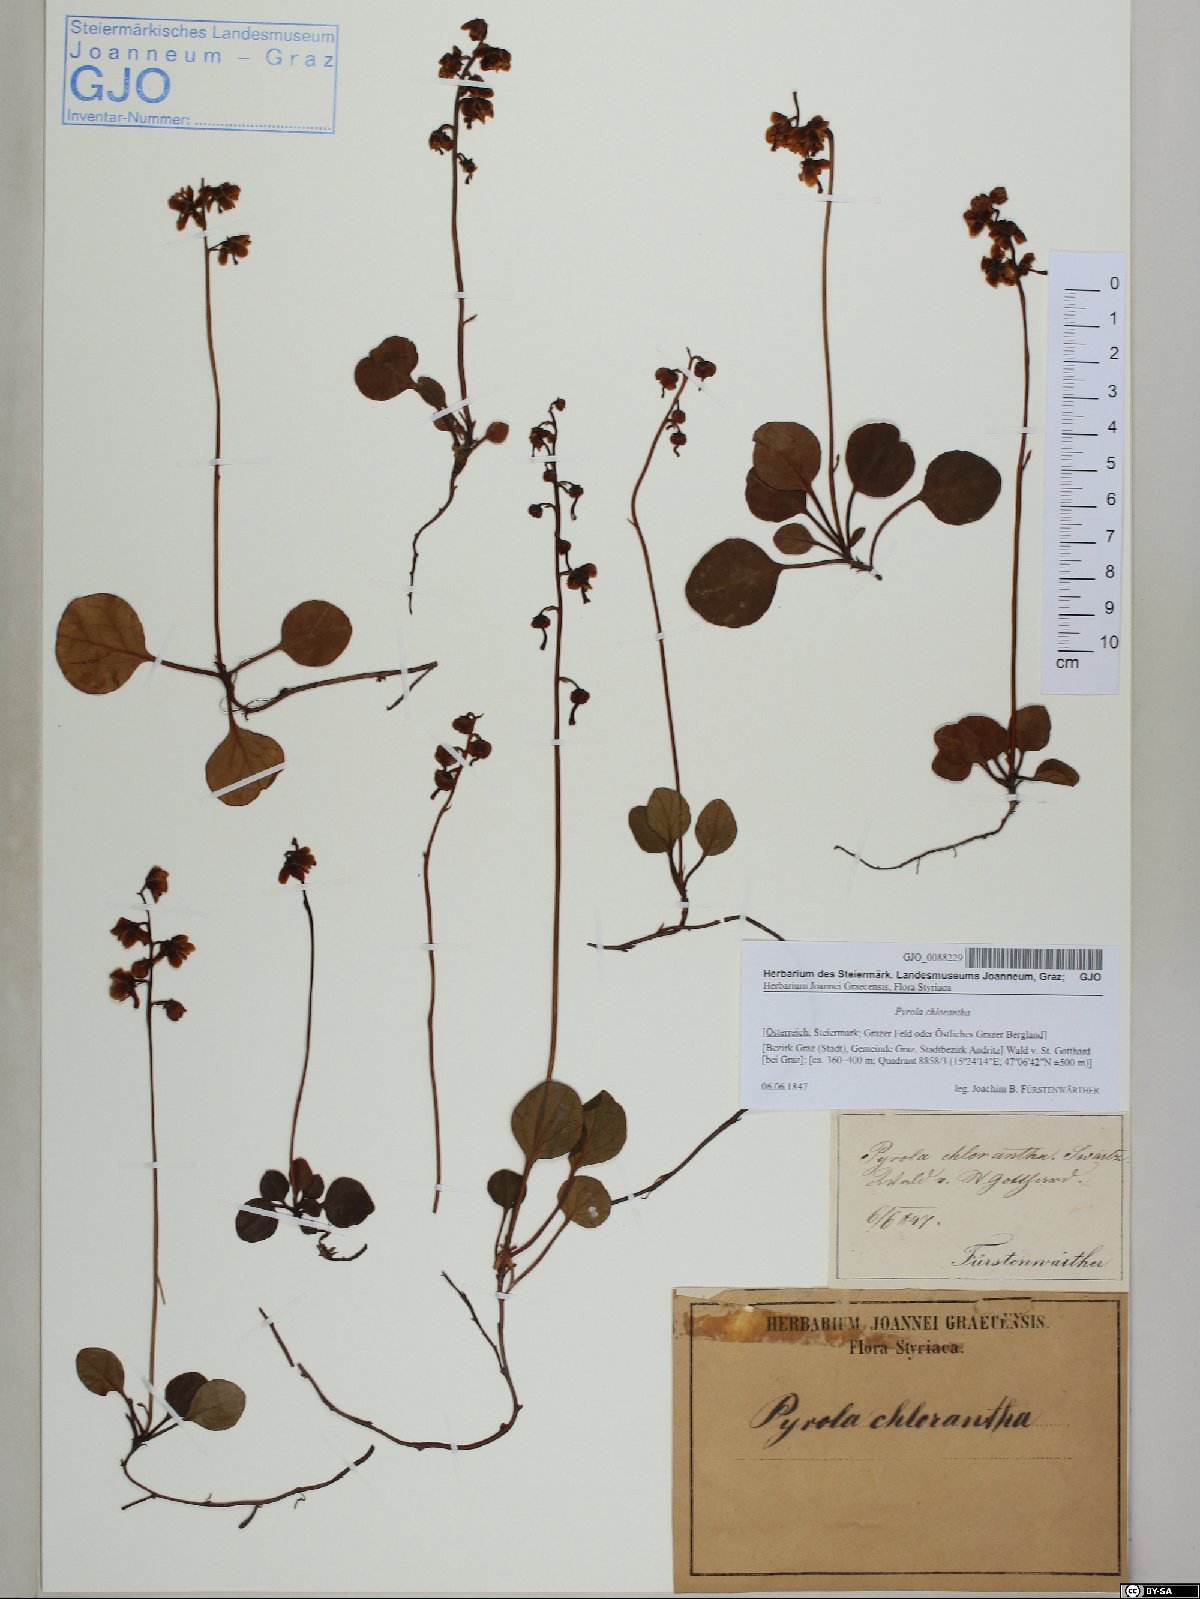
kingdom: Plantae
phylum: Tracheophyta
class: Magnoliopsida
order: Ericales
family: Ericaceae
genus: Pyrola
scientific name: Pyrola chlorantha
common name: Green wintergreen
